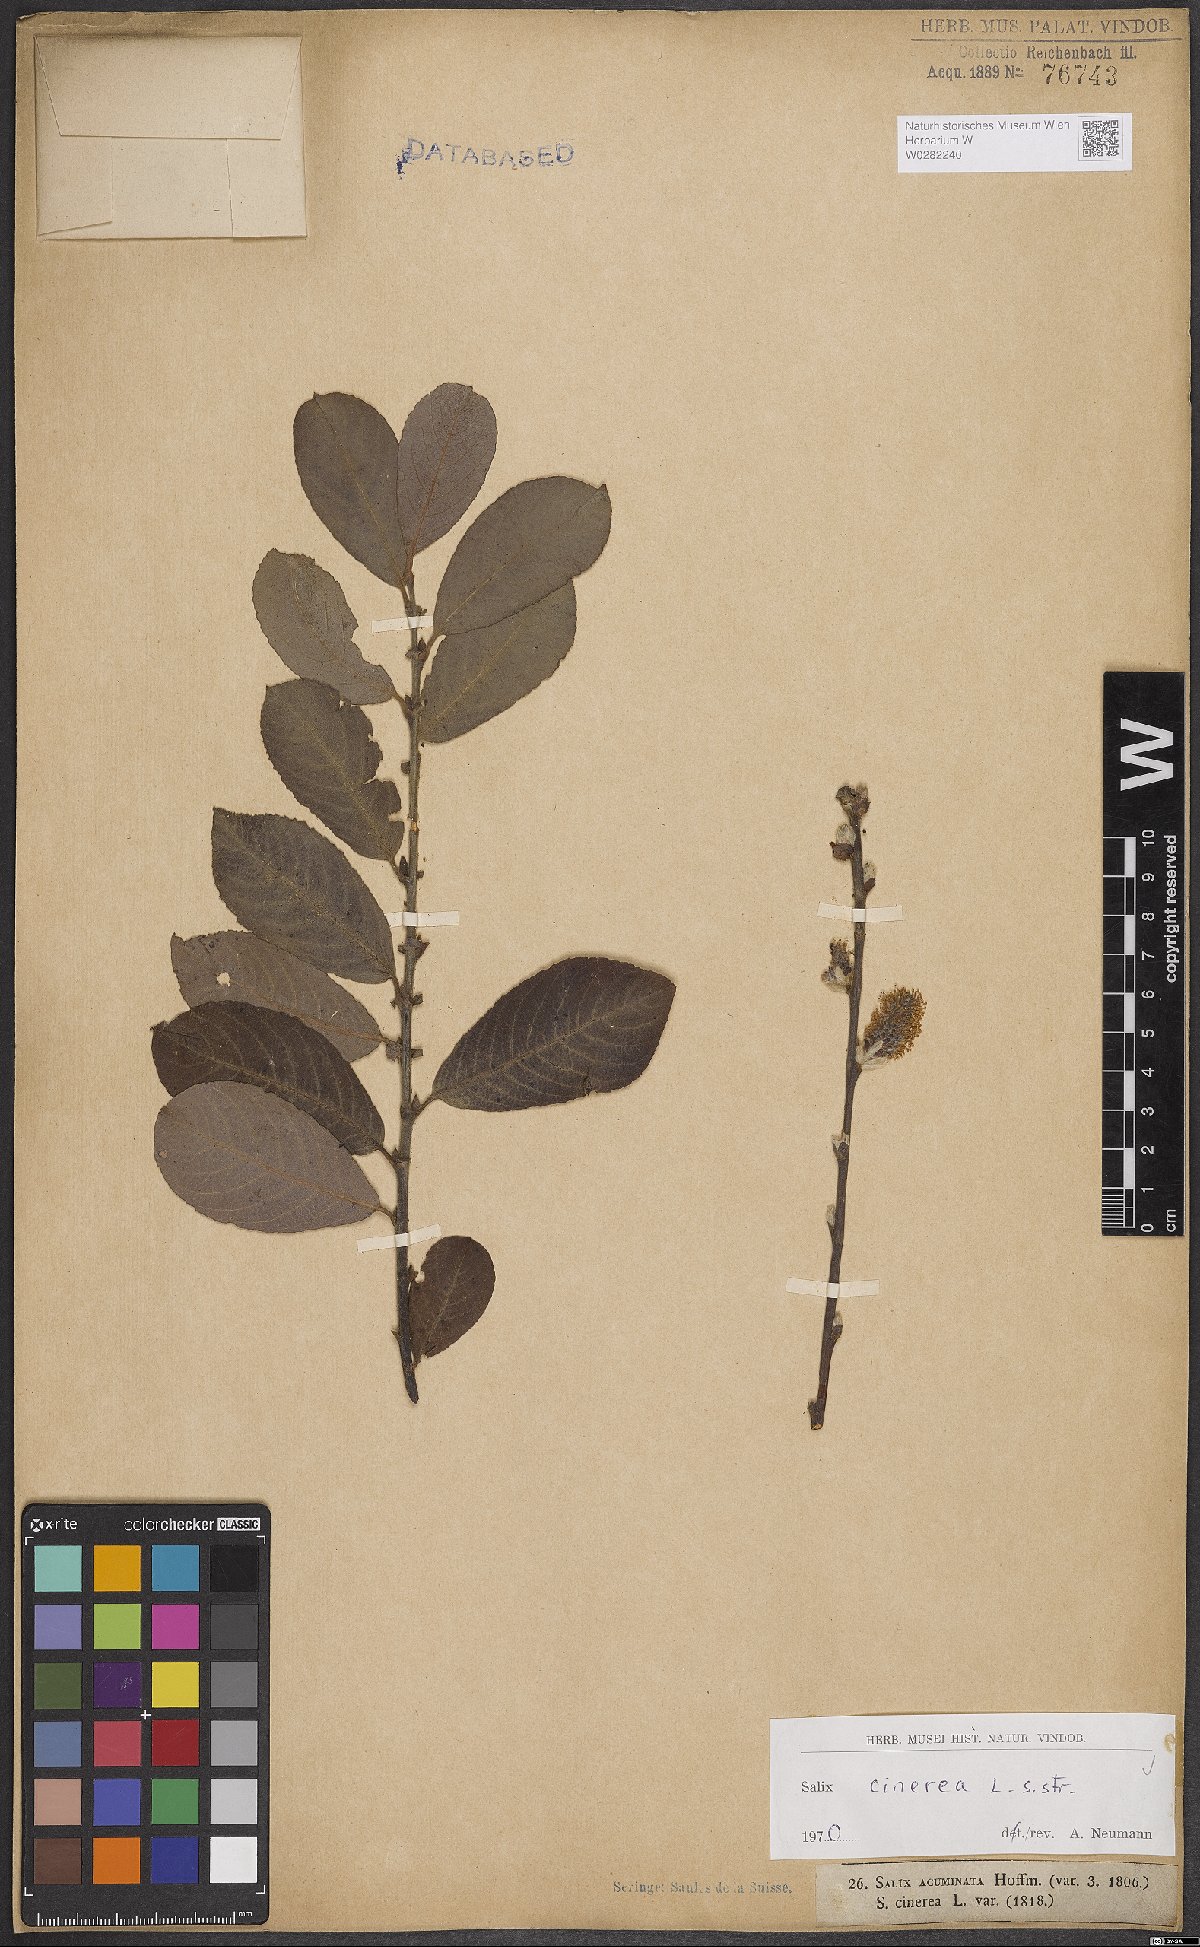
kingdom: Plantae
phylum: Tracheophyta
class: Magnoliopsida
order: Malpighiales
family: Salicaceae
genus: Salix
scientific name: Salix cinerea
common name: Common sallow
